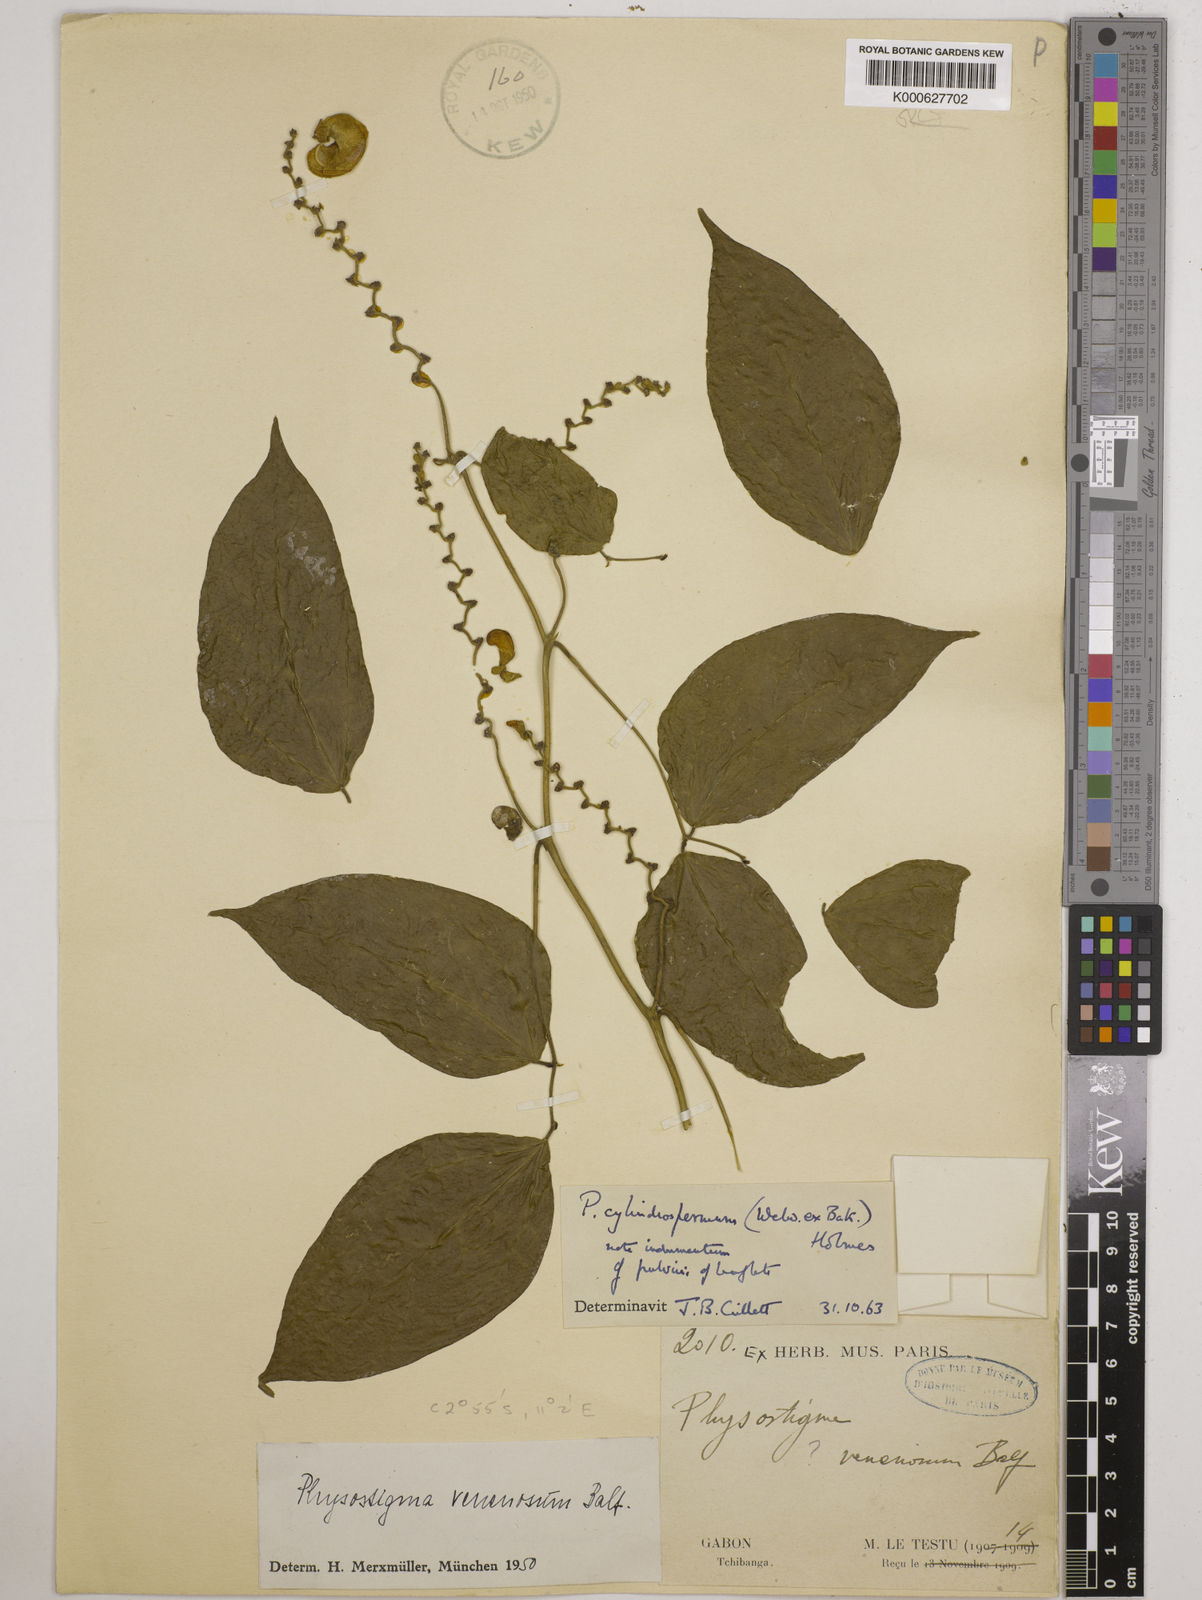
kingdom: Plantae
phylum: Tracheophyta
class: Magnoliopsida
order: Fabales
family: Fabaceae
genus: Physostigma
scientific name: Physostigma cylindrospermum
